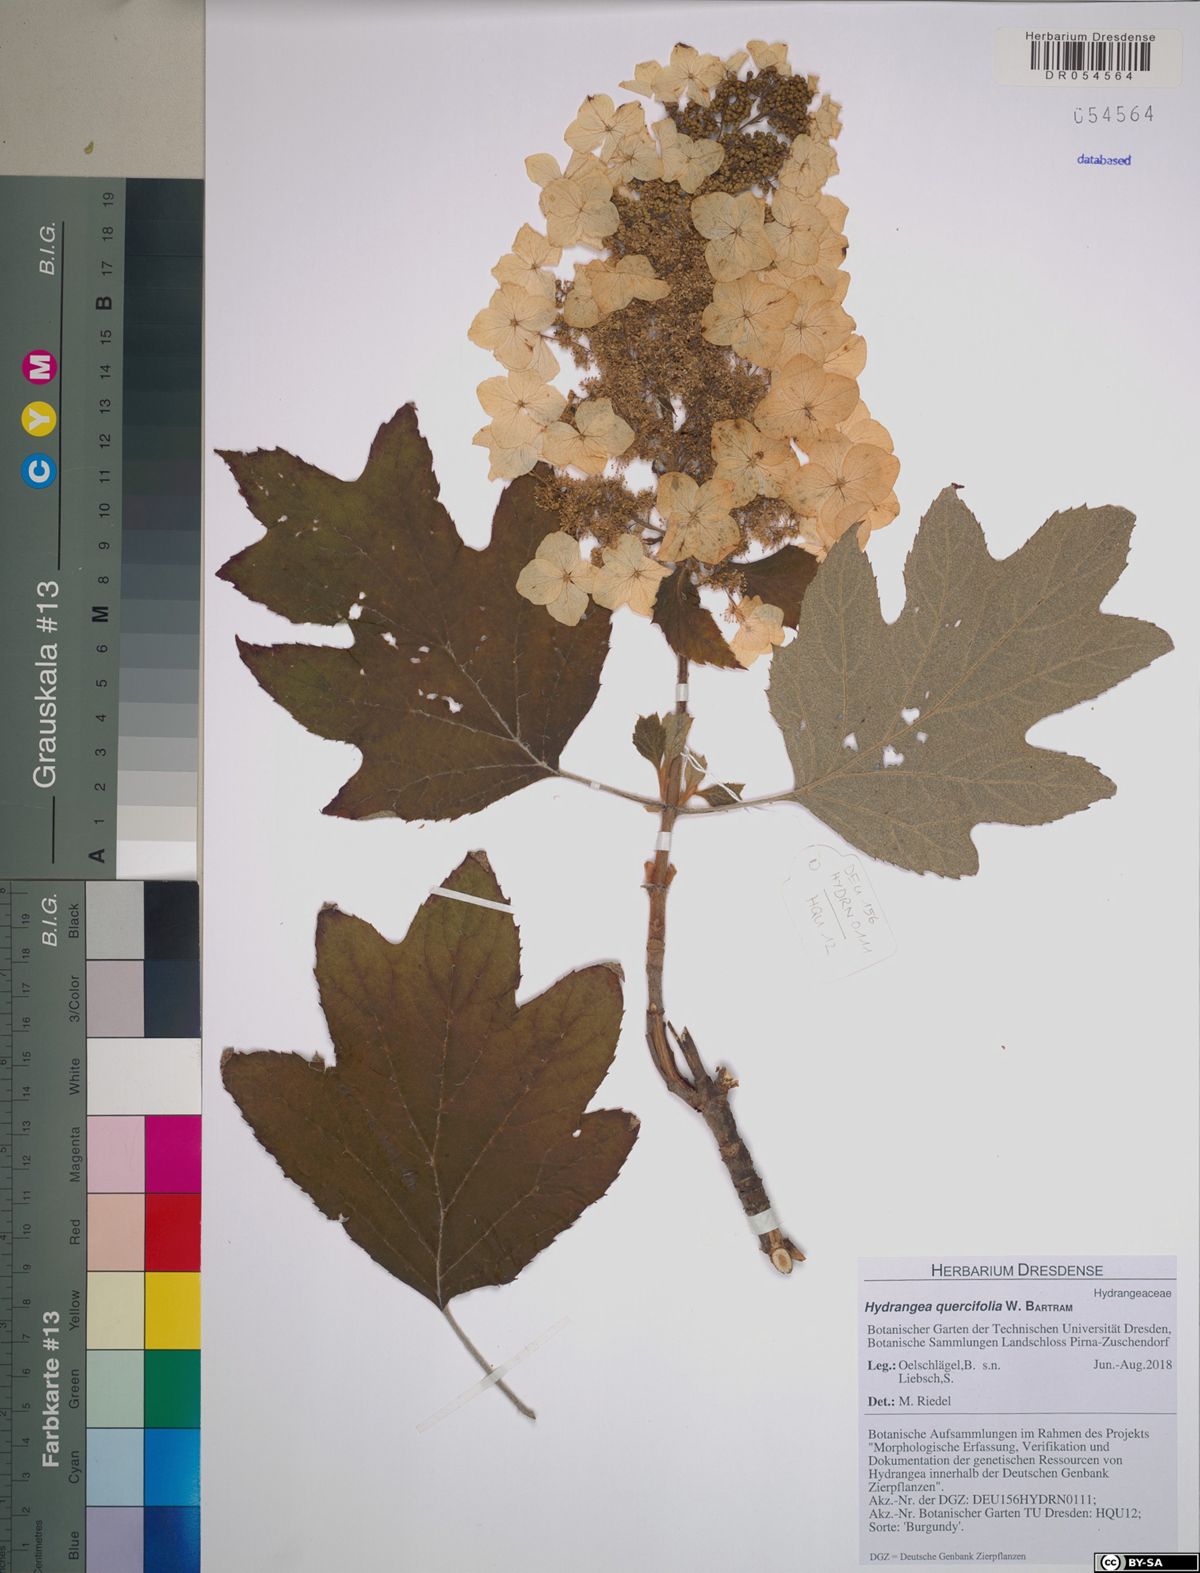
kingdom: Plantae
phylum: Tracheophyta
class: Magnoliopsida
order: Cornales
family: Hydrangeaceae
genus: Hydrangea
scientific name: Hydrangea quercifolia
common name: Oak-leaf hydrangea
